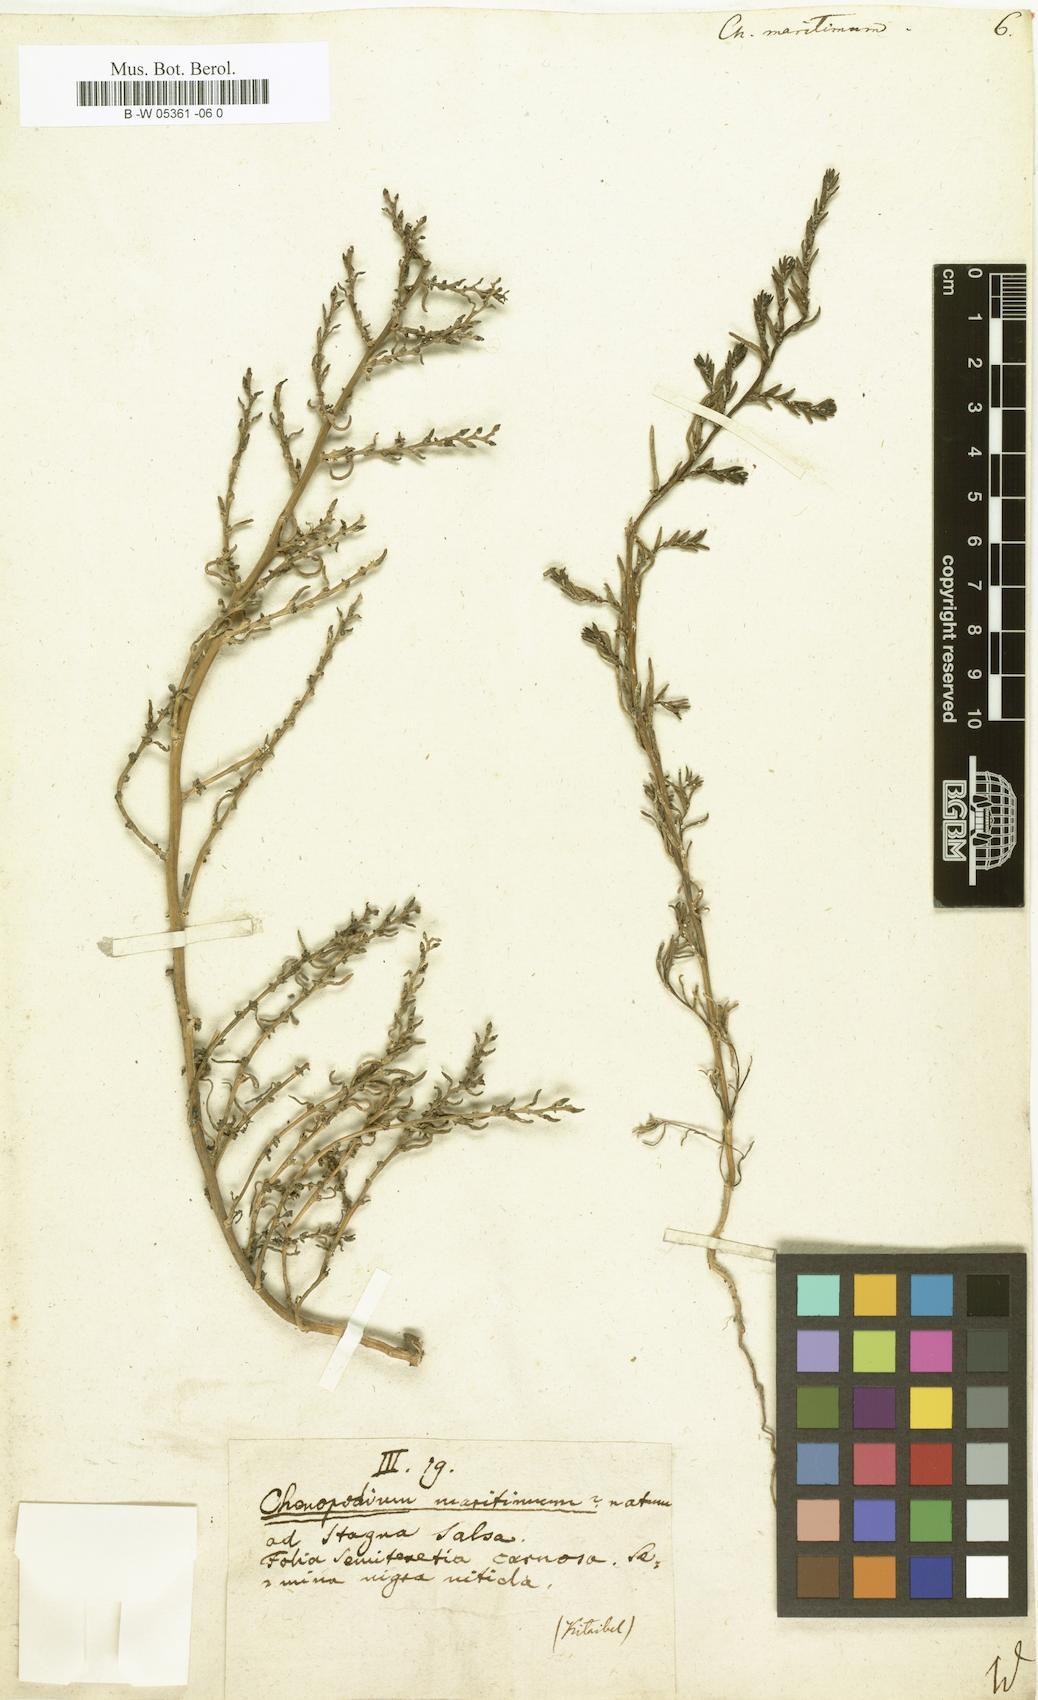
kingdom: Plantae
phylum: Tracheophyta
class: Magnoliopsida
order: Caryophyllales
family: Amaranthaceae
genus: Suaeda
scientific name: Suaeda
